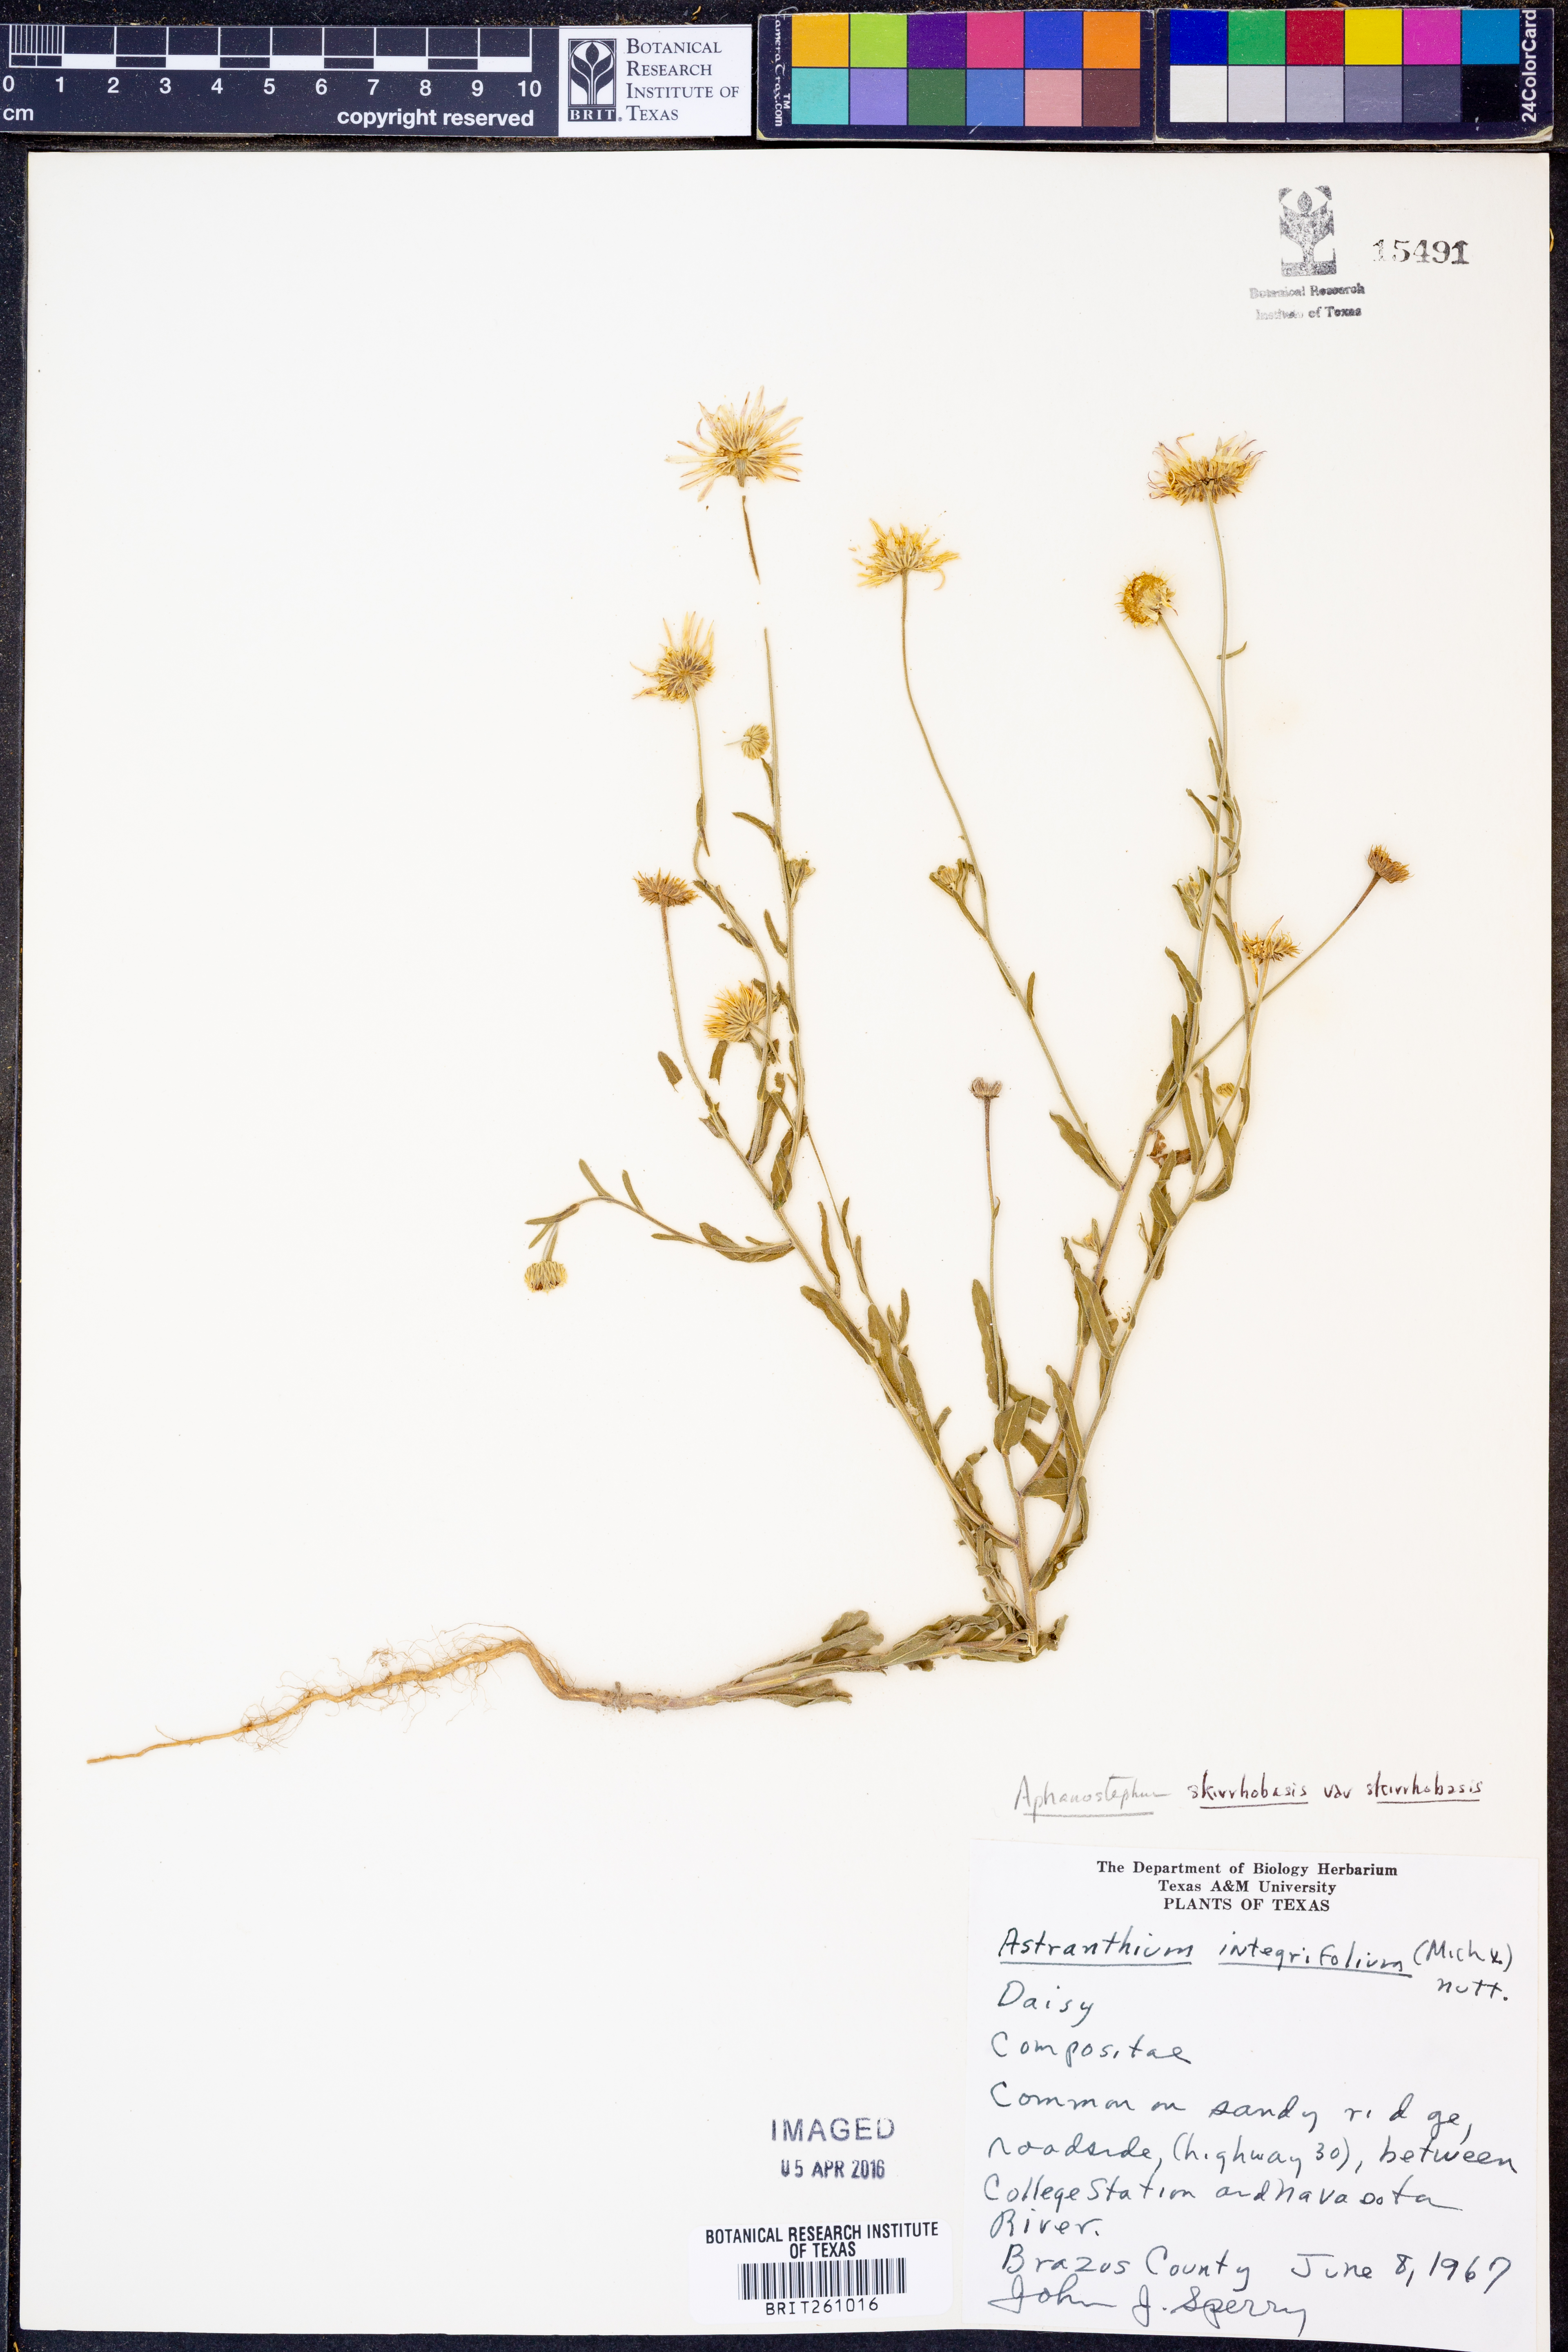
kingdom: Plantae
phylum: Tracheophyta
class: Magnoliopsida
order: Asterales
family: Asteraceae
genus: Aphanostephus
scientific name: Aphanostephus skirrhobasis
